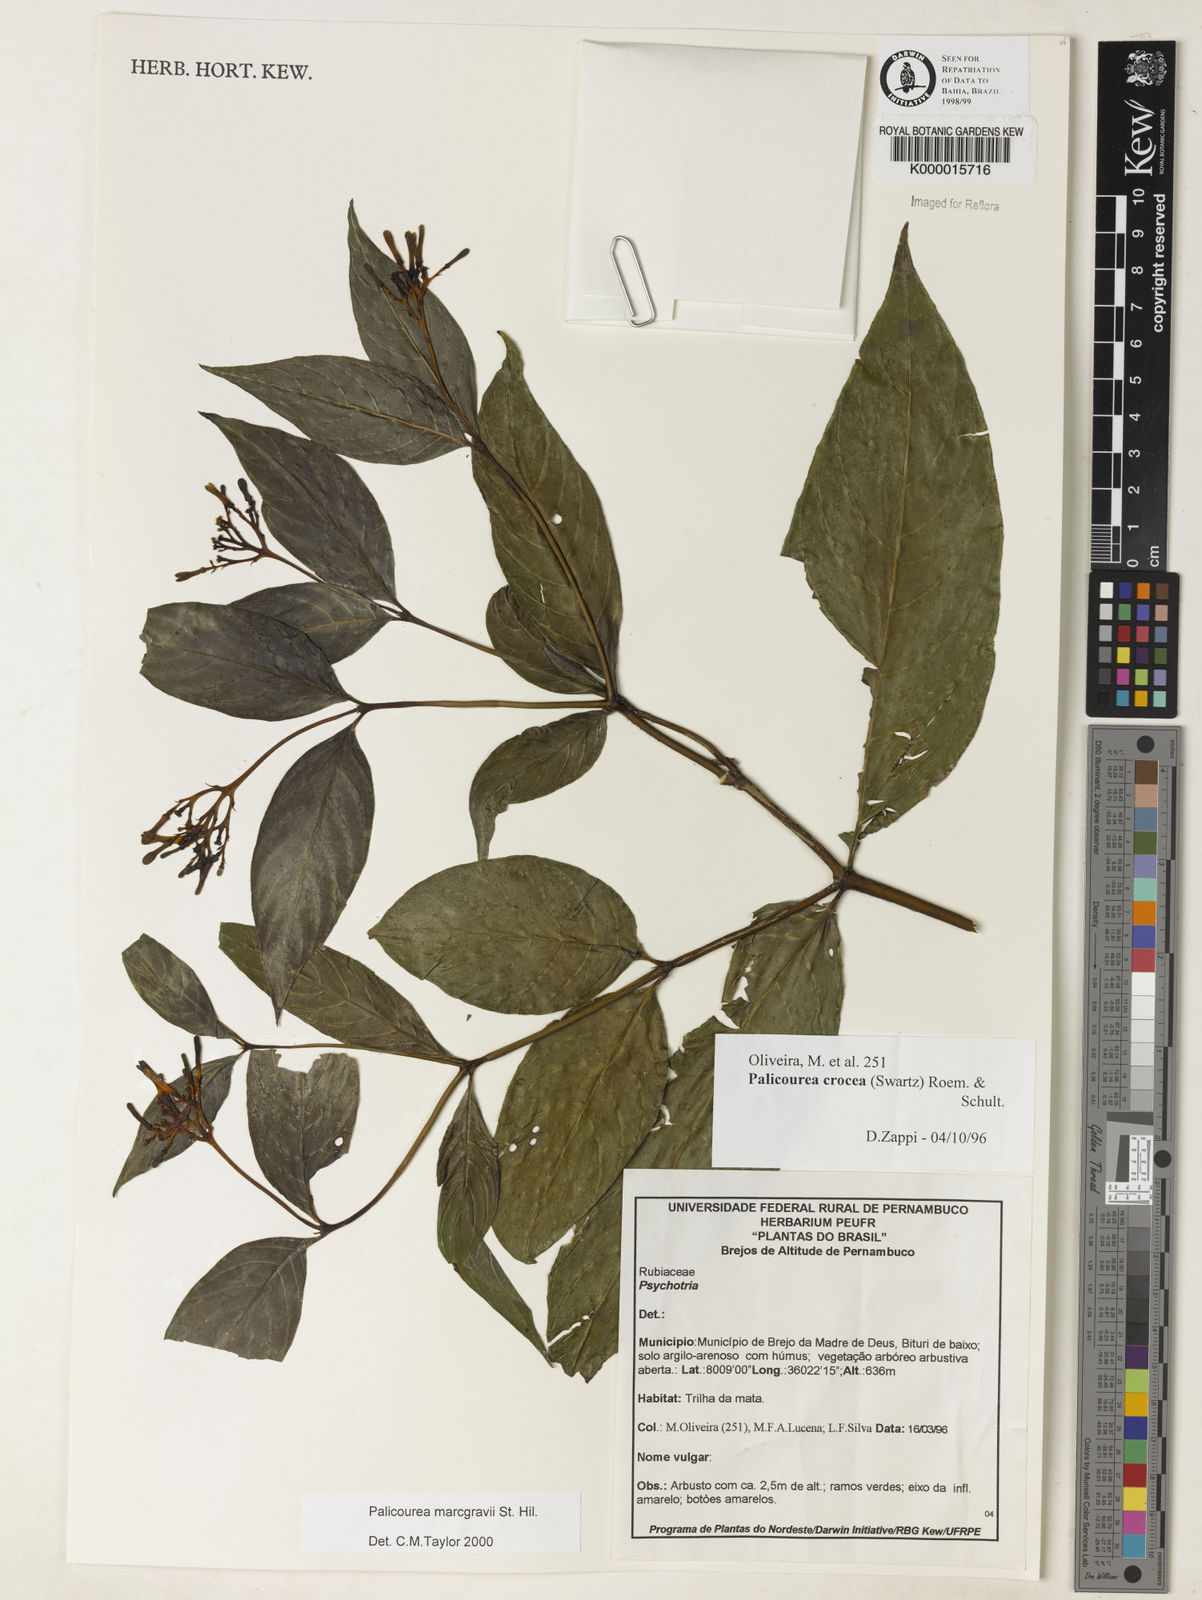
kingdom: Plantae
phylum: Tracheophyta
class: Magnoliopsida
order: Gentianales
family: Rubiaceae
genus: Palicourea
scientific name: Palicourea marcgravii
